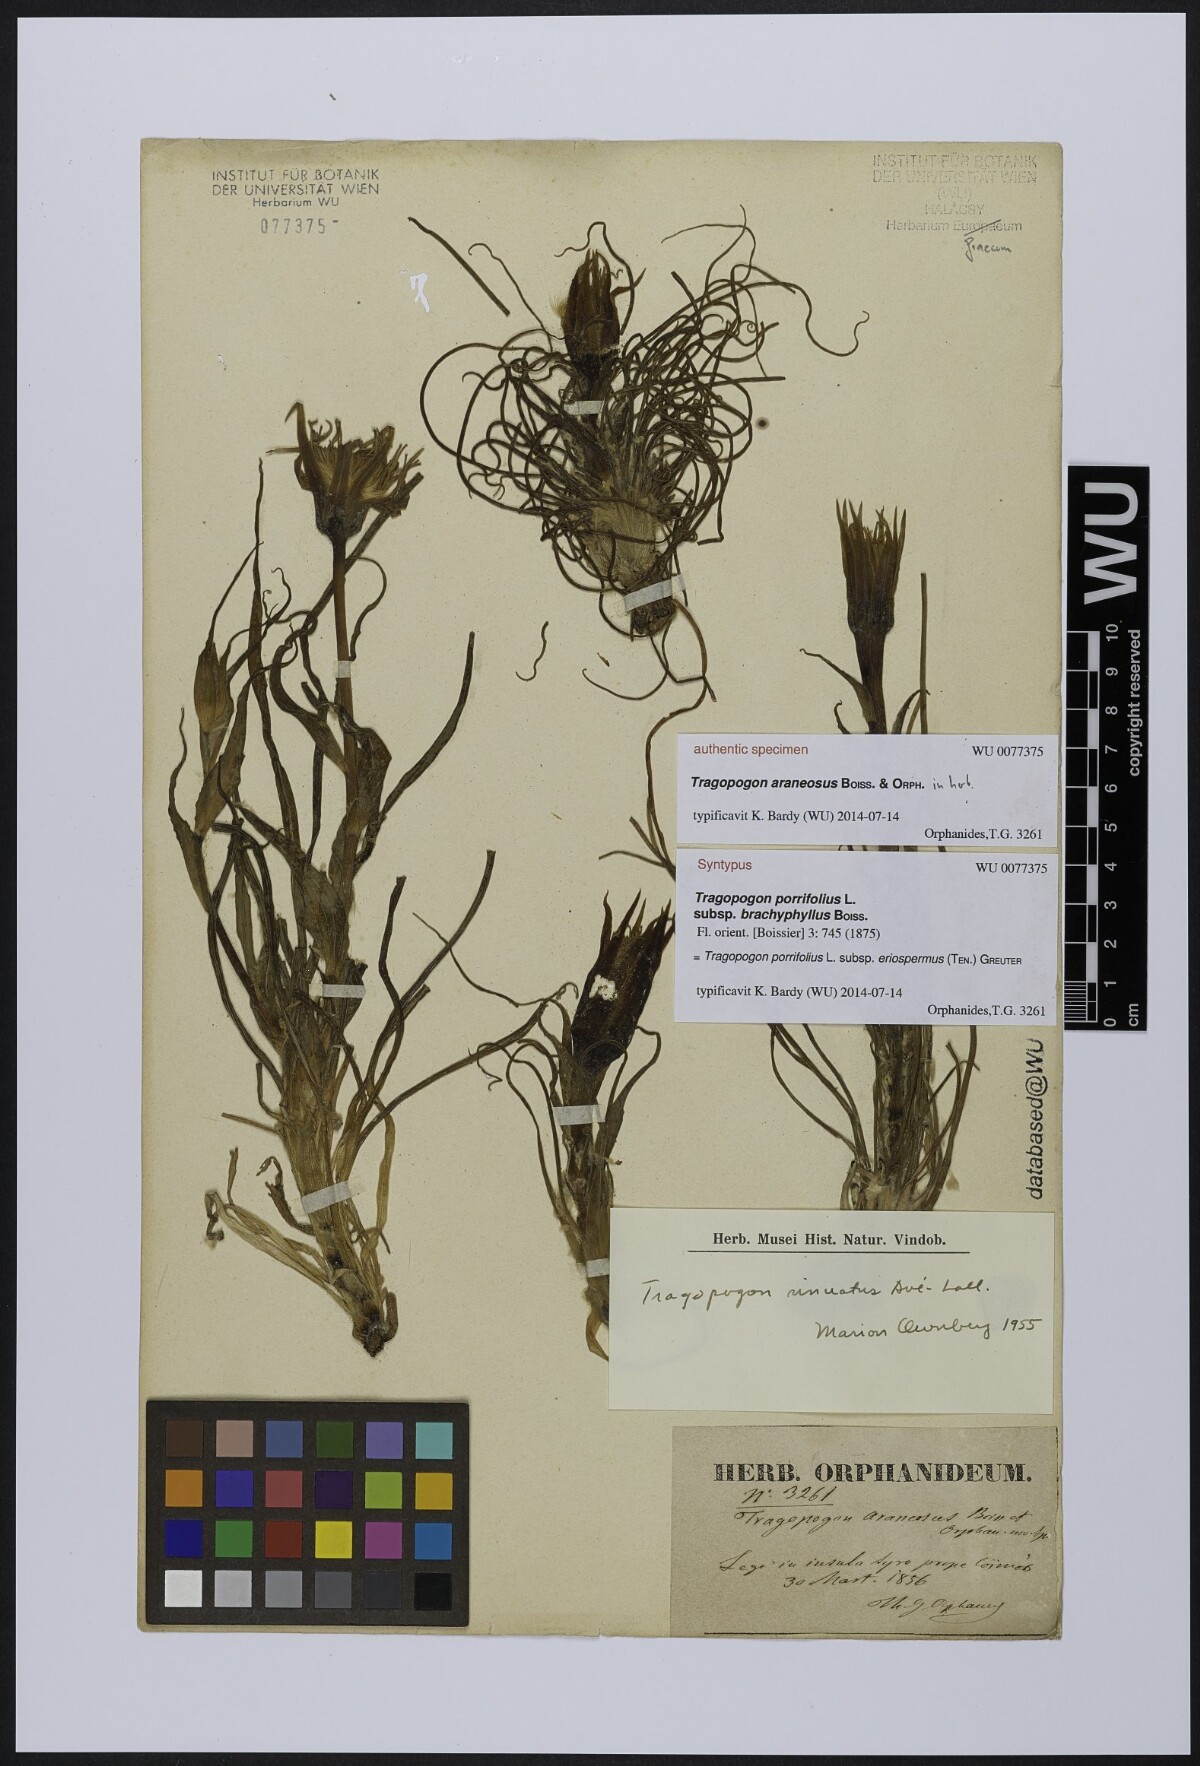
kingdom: Plantae
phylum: Tracheophyta
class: Magnoliopsida
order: Asterales
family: Asteraceae
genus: Tragopogon
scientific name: Tragopogon porrifolius
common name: Salsify
